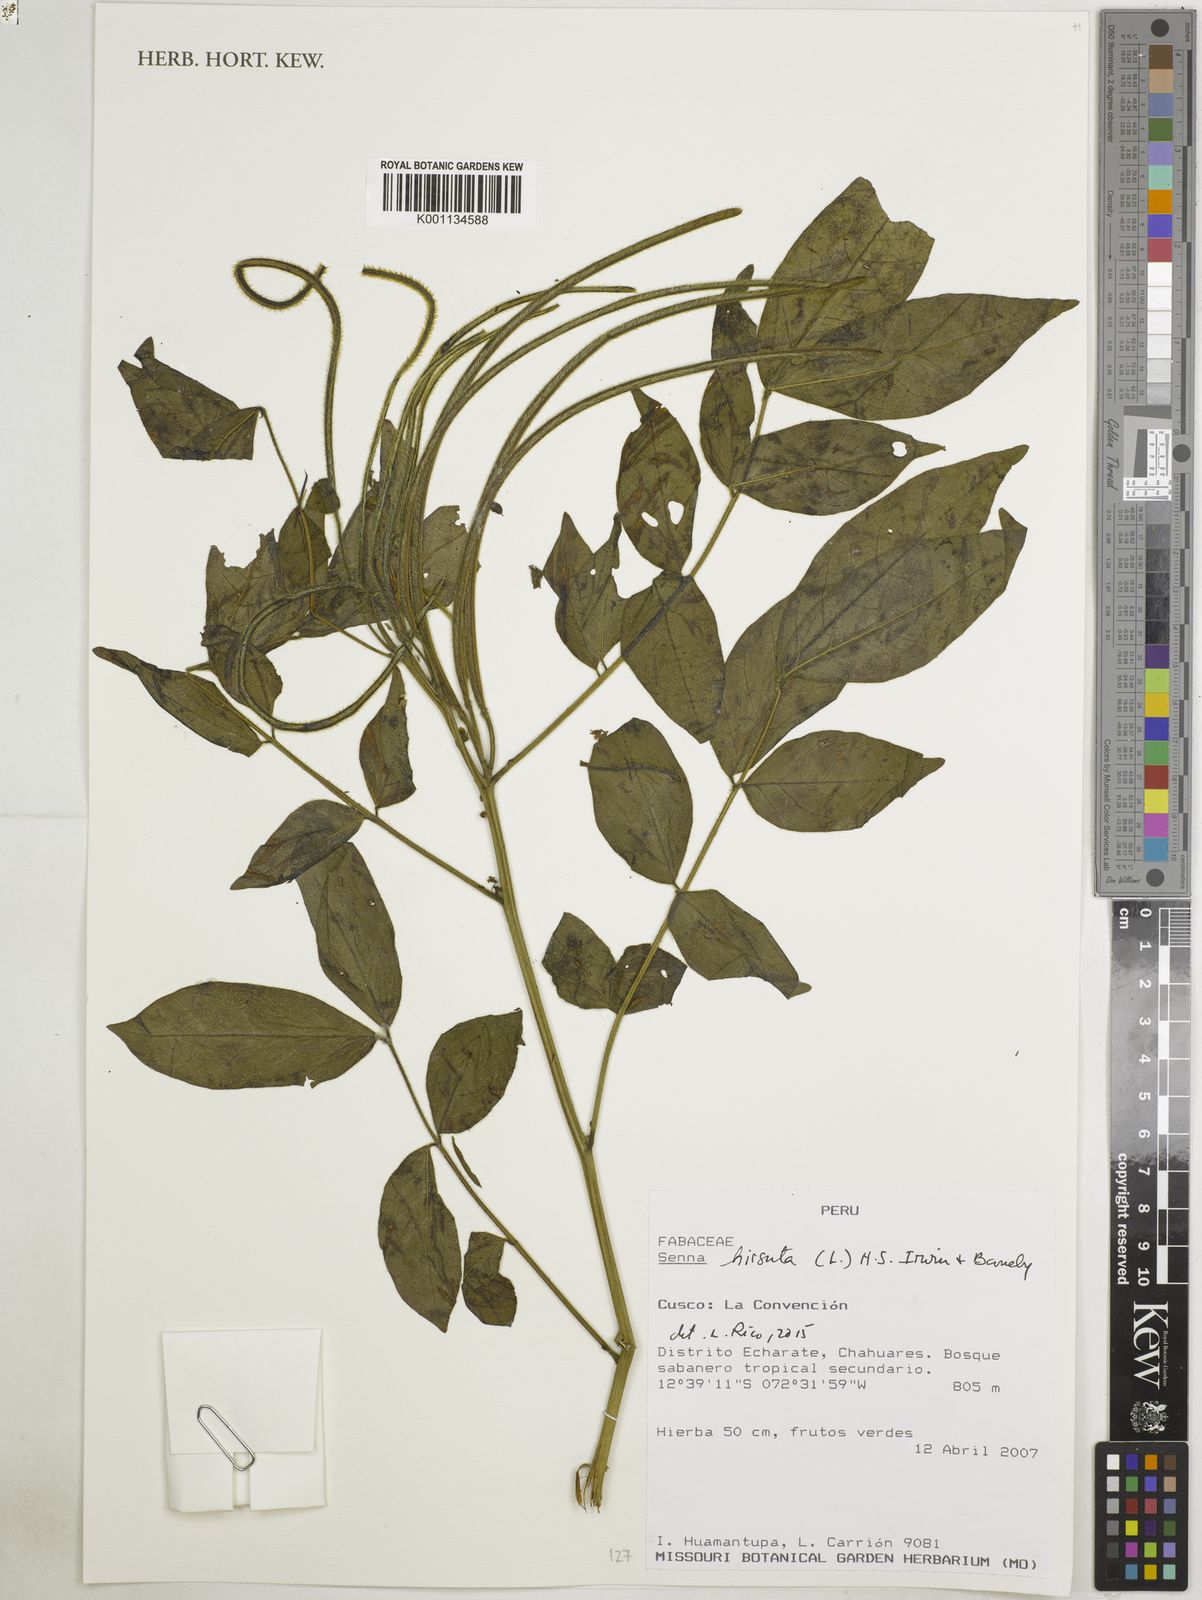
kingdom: Plantae
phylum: Tracheophyta
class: Magnoliopsida
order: Fabales
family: Fabaceae
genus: Senna
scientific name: Senna hirsuta
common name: Woolly senna
